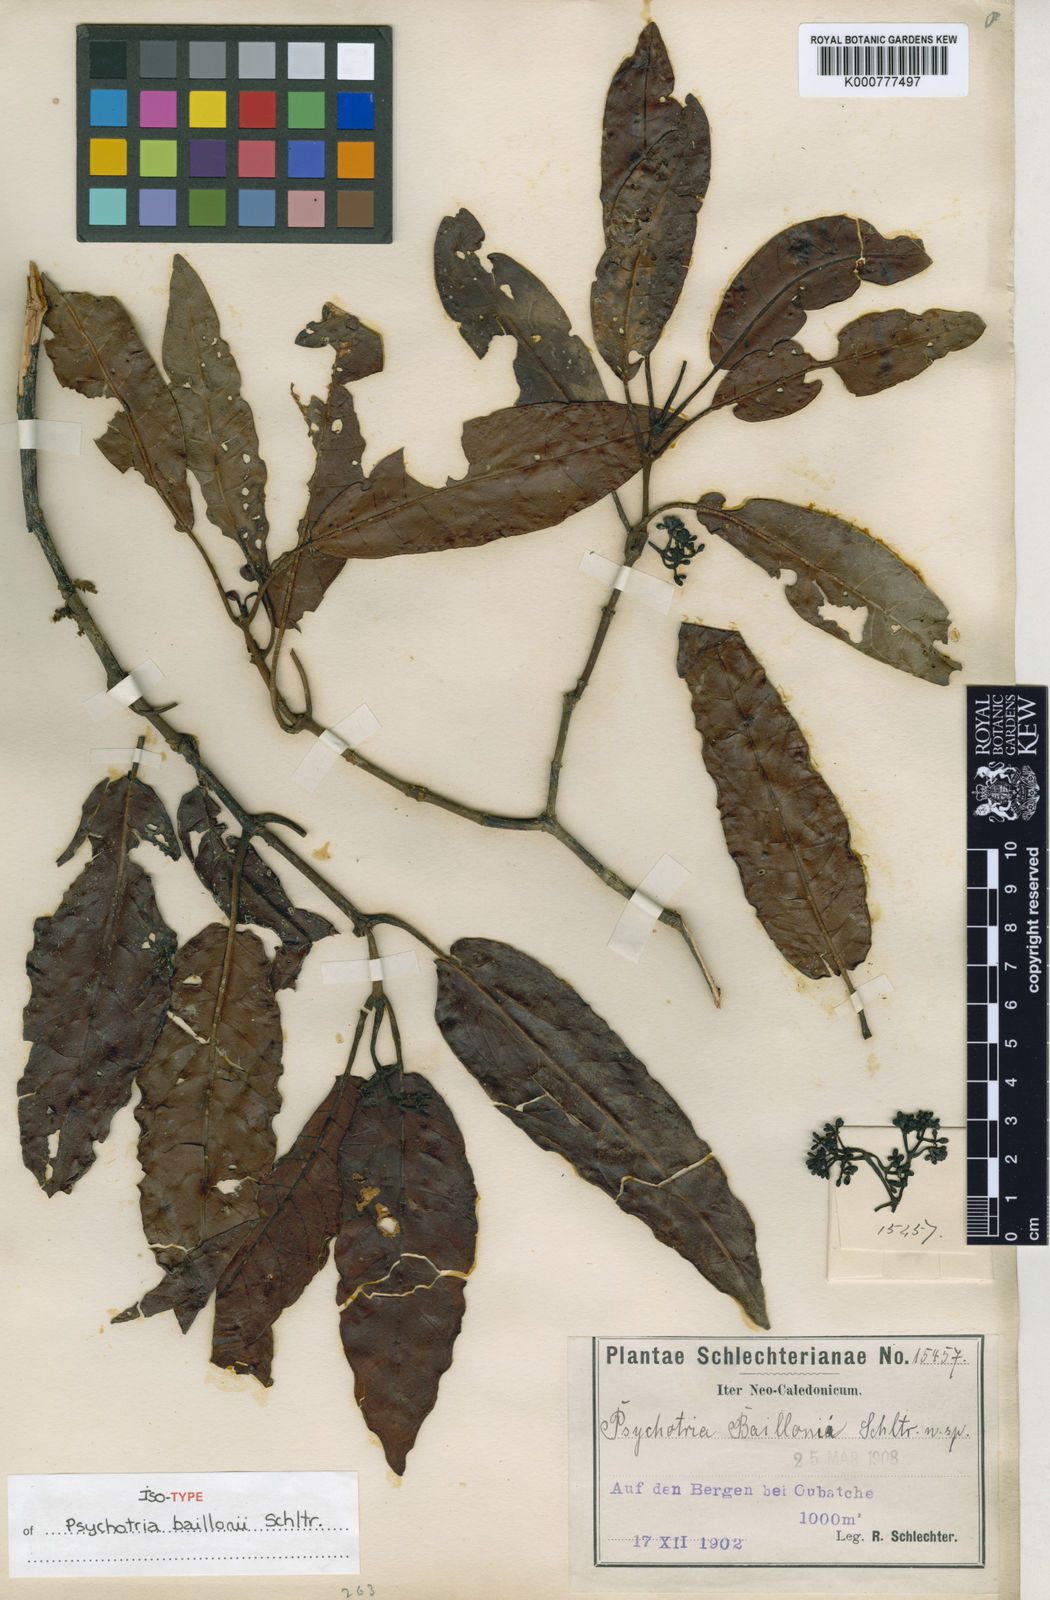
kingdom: Plantae
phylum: Tracheophyta
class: Magnoliopsida
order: Gentianales
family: Rubiaceae
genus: Psychotria
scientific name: Psychotria baillonii
